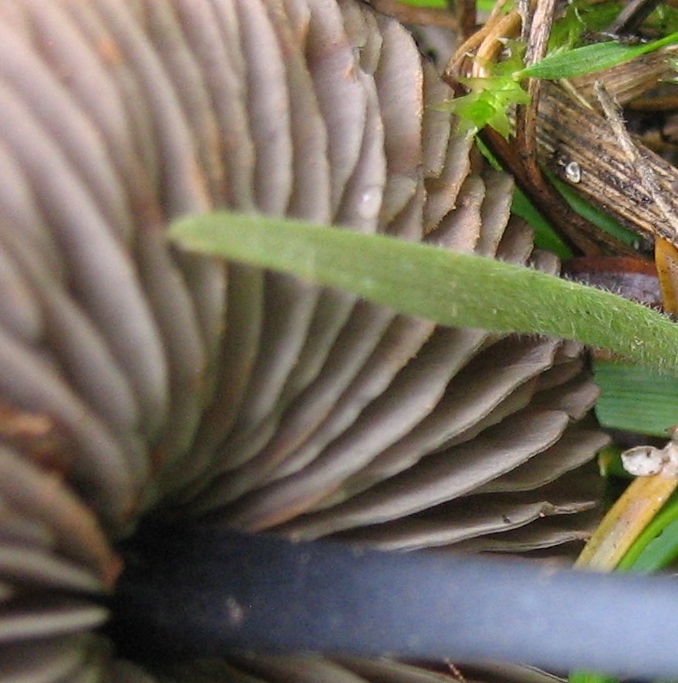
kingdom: Fungi
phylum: Basidiomycota
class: Agaricomycetes
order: Agaricales
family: Entolomataceae
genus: Entoloma
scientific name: Entoloma
